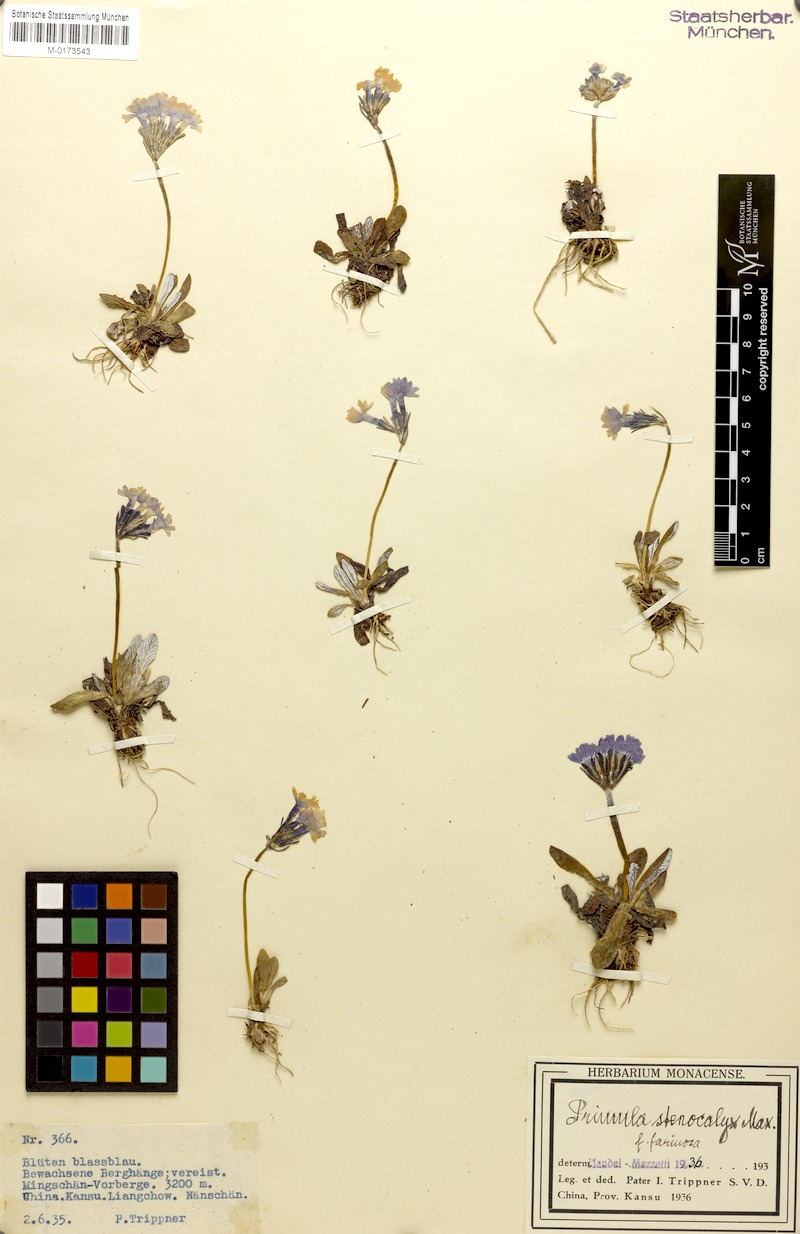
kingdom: Plantae
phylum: Tracheophyta
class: Magnoliopsida
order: Ericales
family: Primulaceae
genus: Primula
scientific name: Primula stenocalyx
